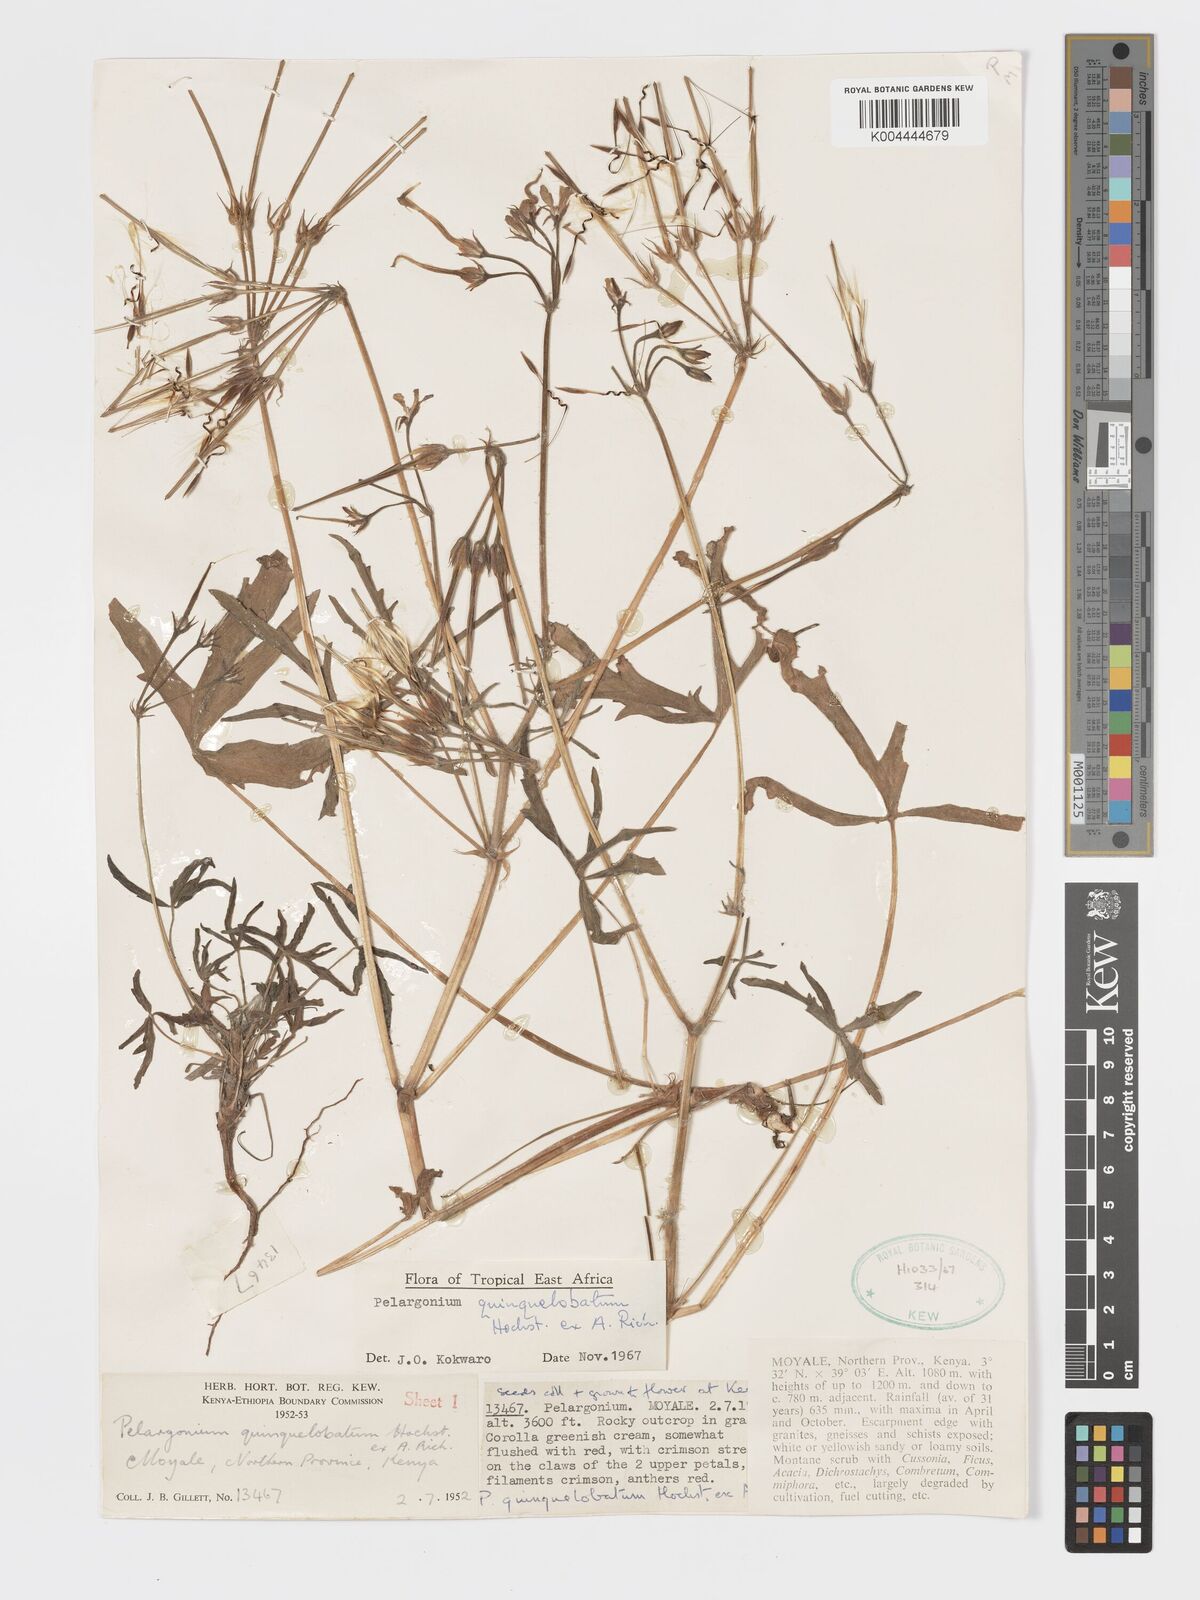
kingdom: Plantae
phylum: Tracheophyta
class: Magnoliopsida
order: Geraniales
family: Geraniaceae
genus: Pelargonium
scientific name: Pelargonium quinquelobatum
